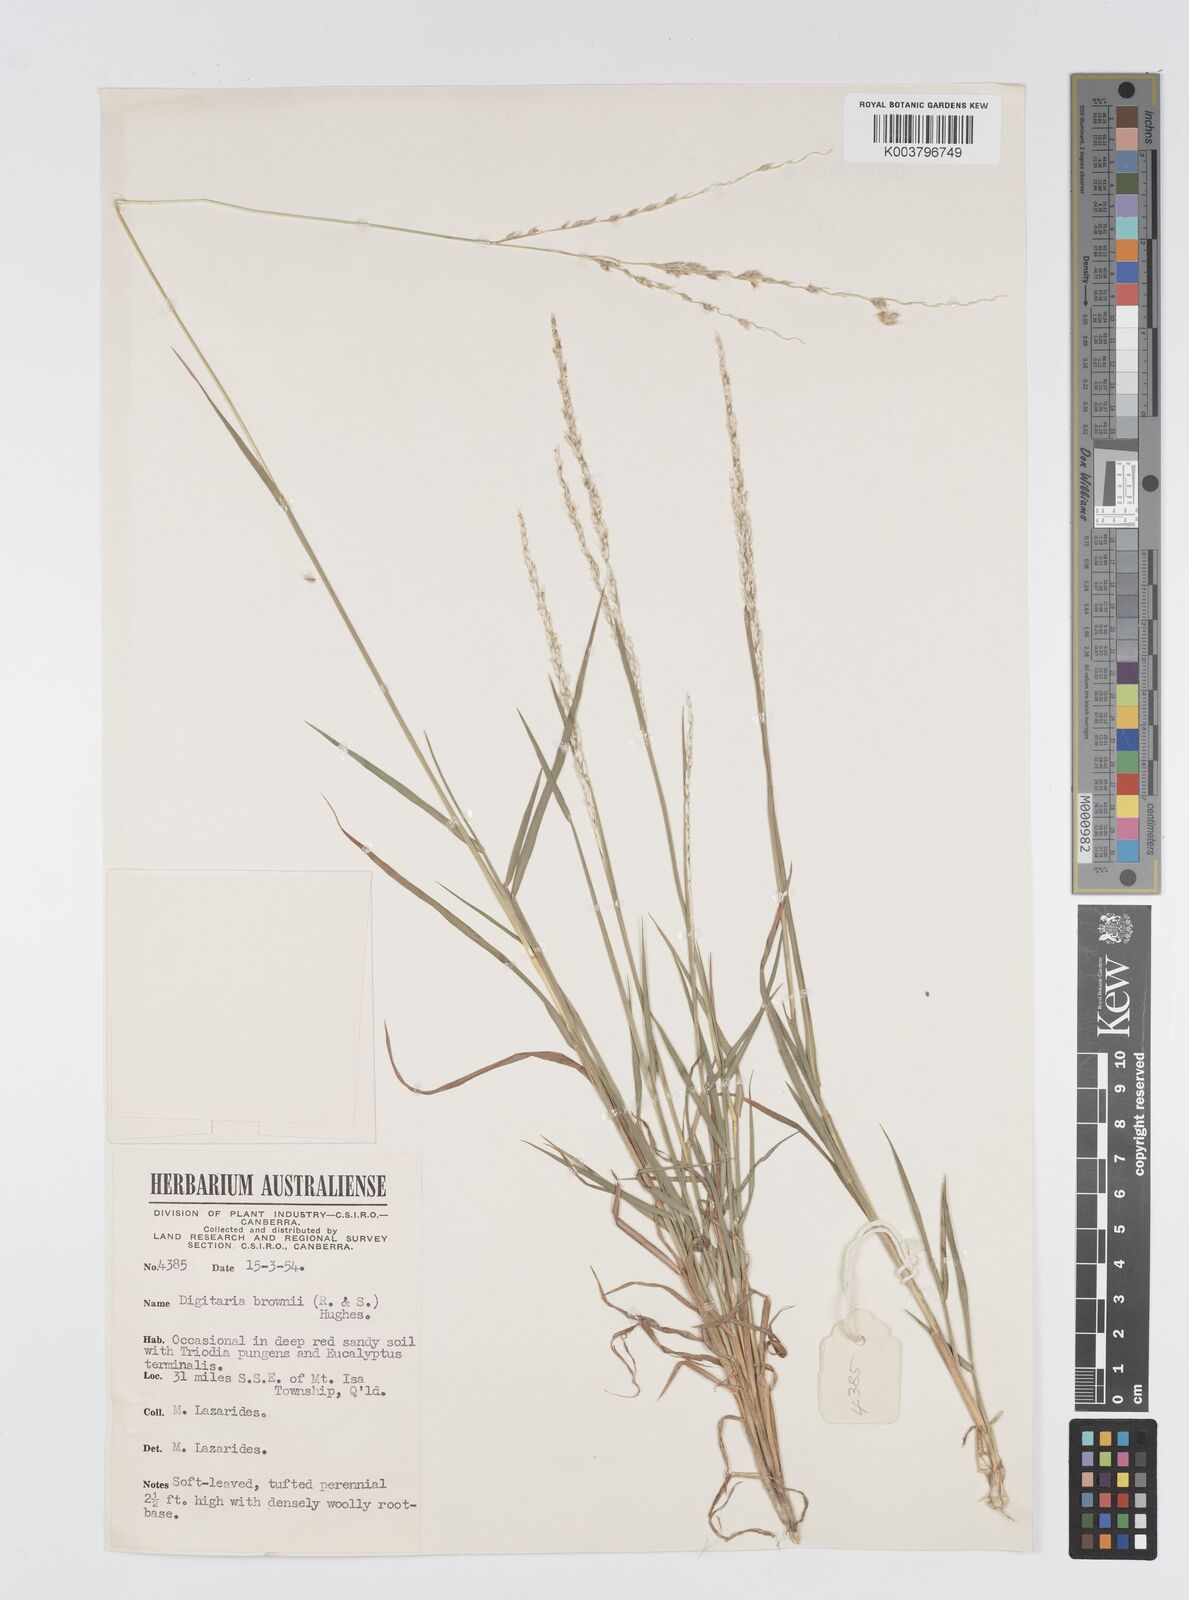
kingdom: Plantae
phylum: Tracheophyta
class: Liliopsida
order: Poales
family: Poaceae
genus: Digitaria
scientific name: Digitaria brownii
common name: Cotton grass
